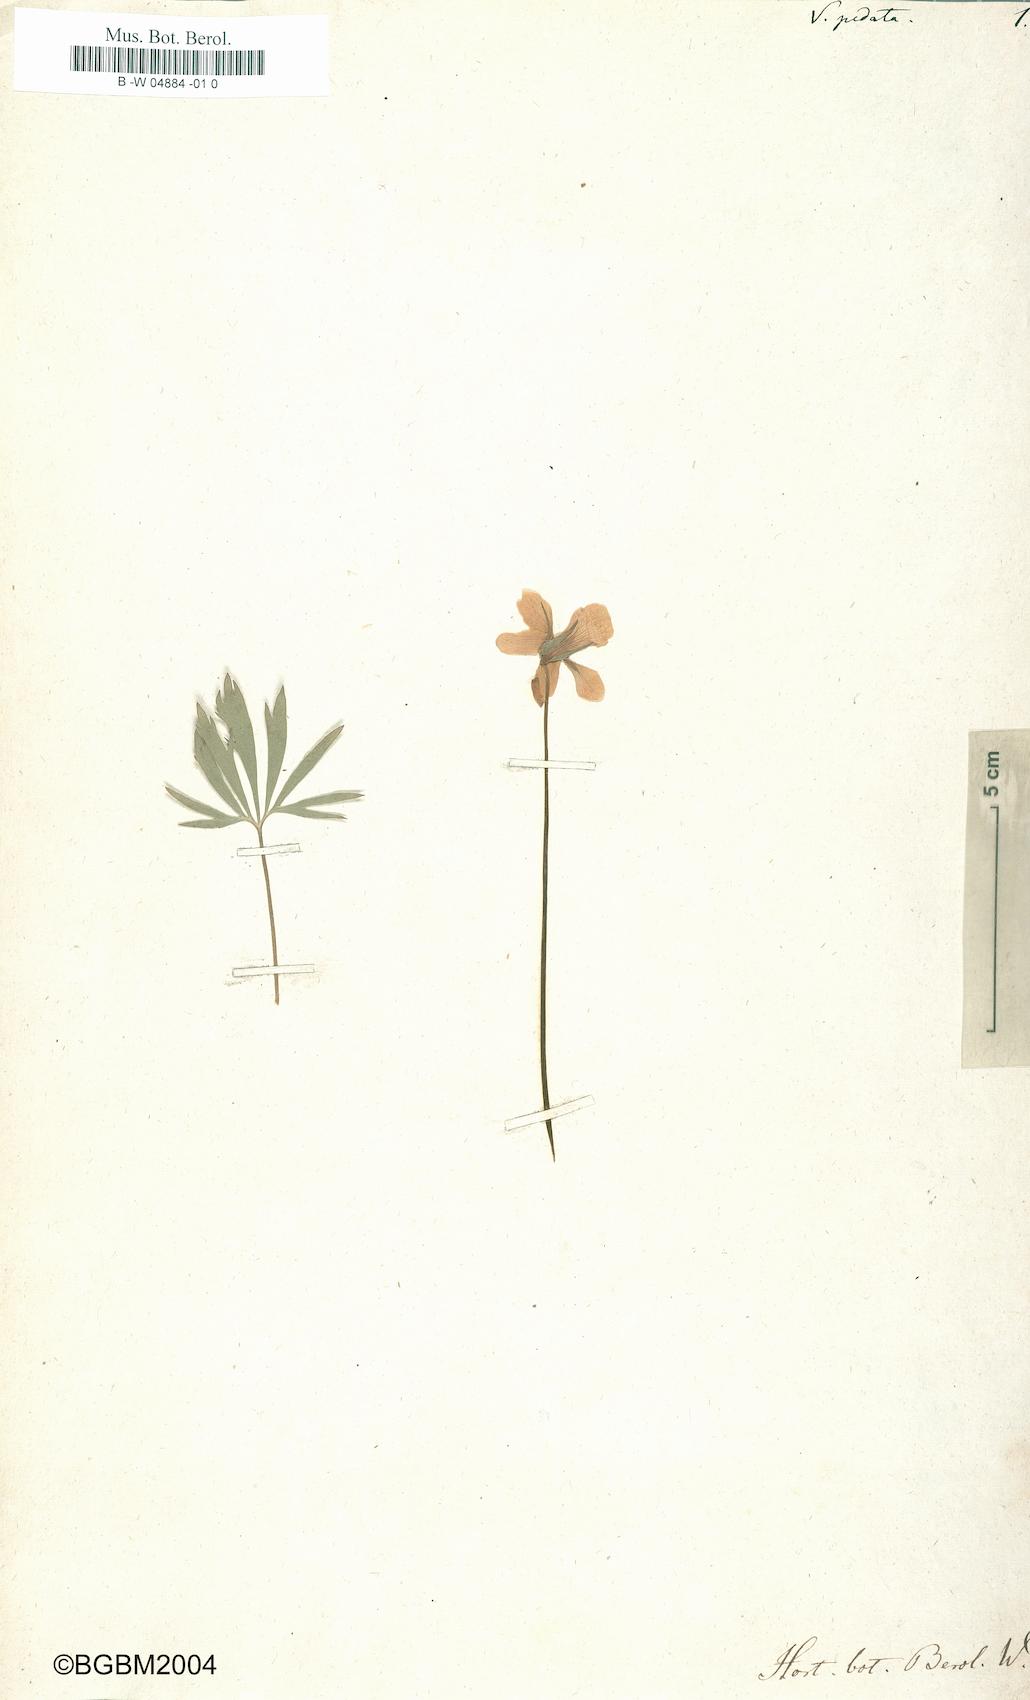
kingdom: Plantae
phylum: Tracheophyta
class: Magnoliopsida
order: Malpighiales
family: Violaceae
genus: Viola
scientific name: Viola pedata
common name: Pansy violet
